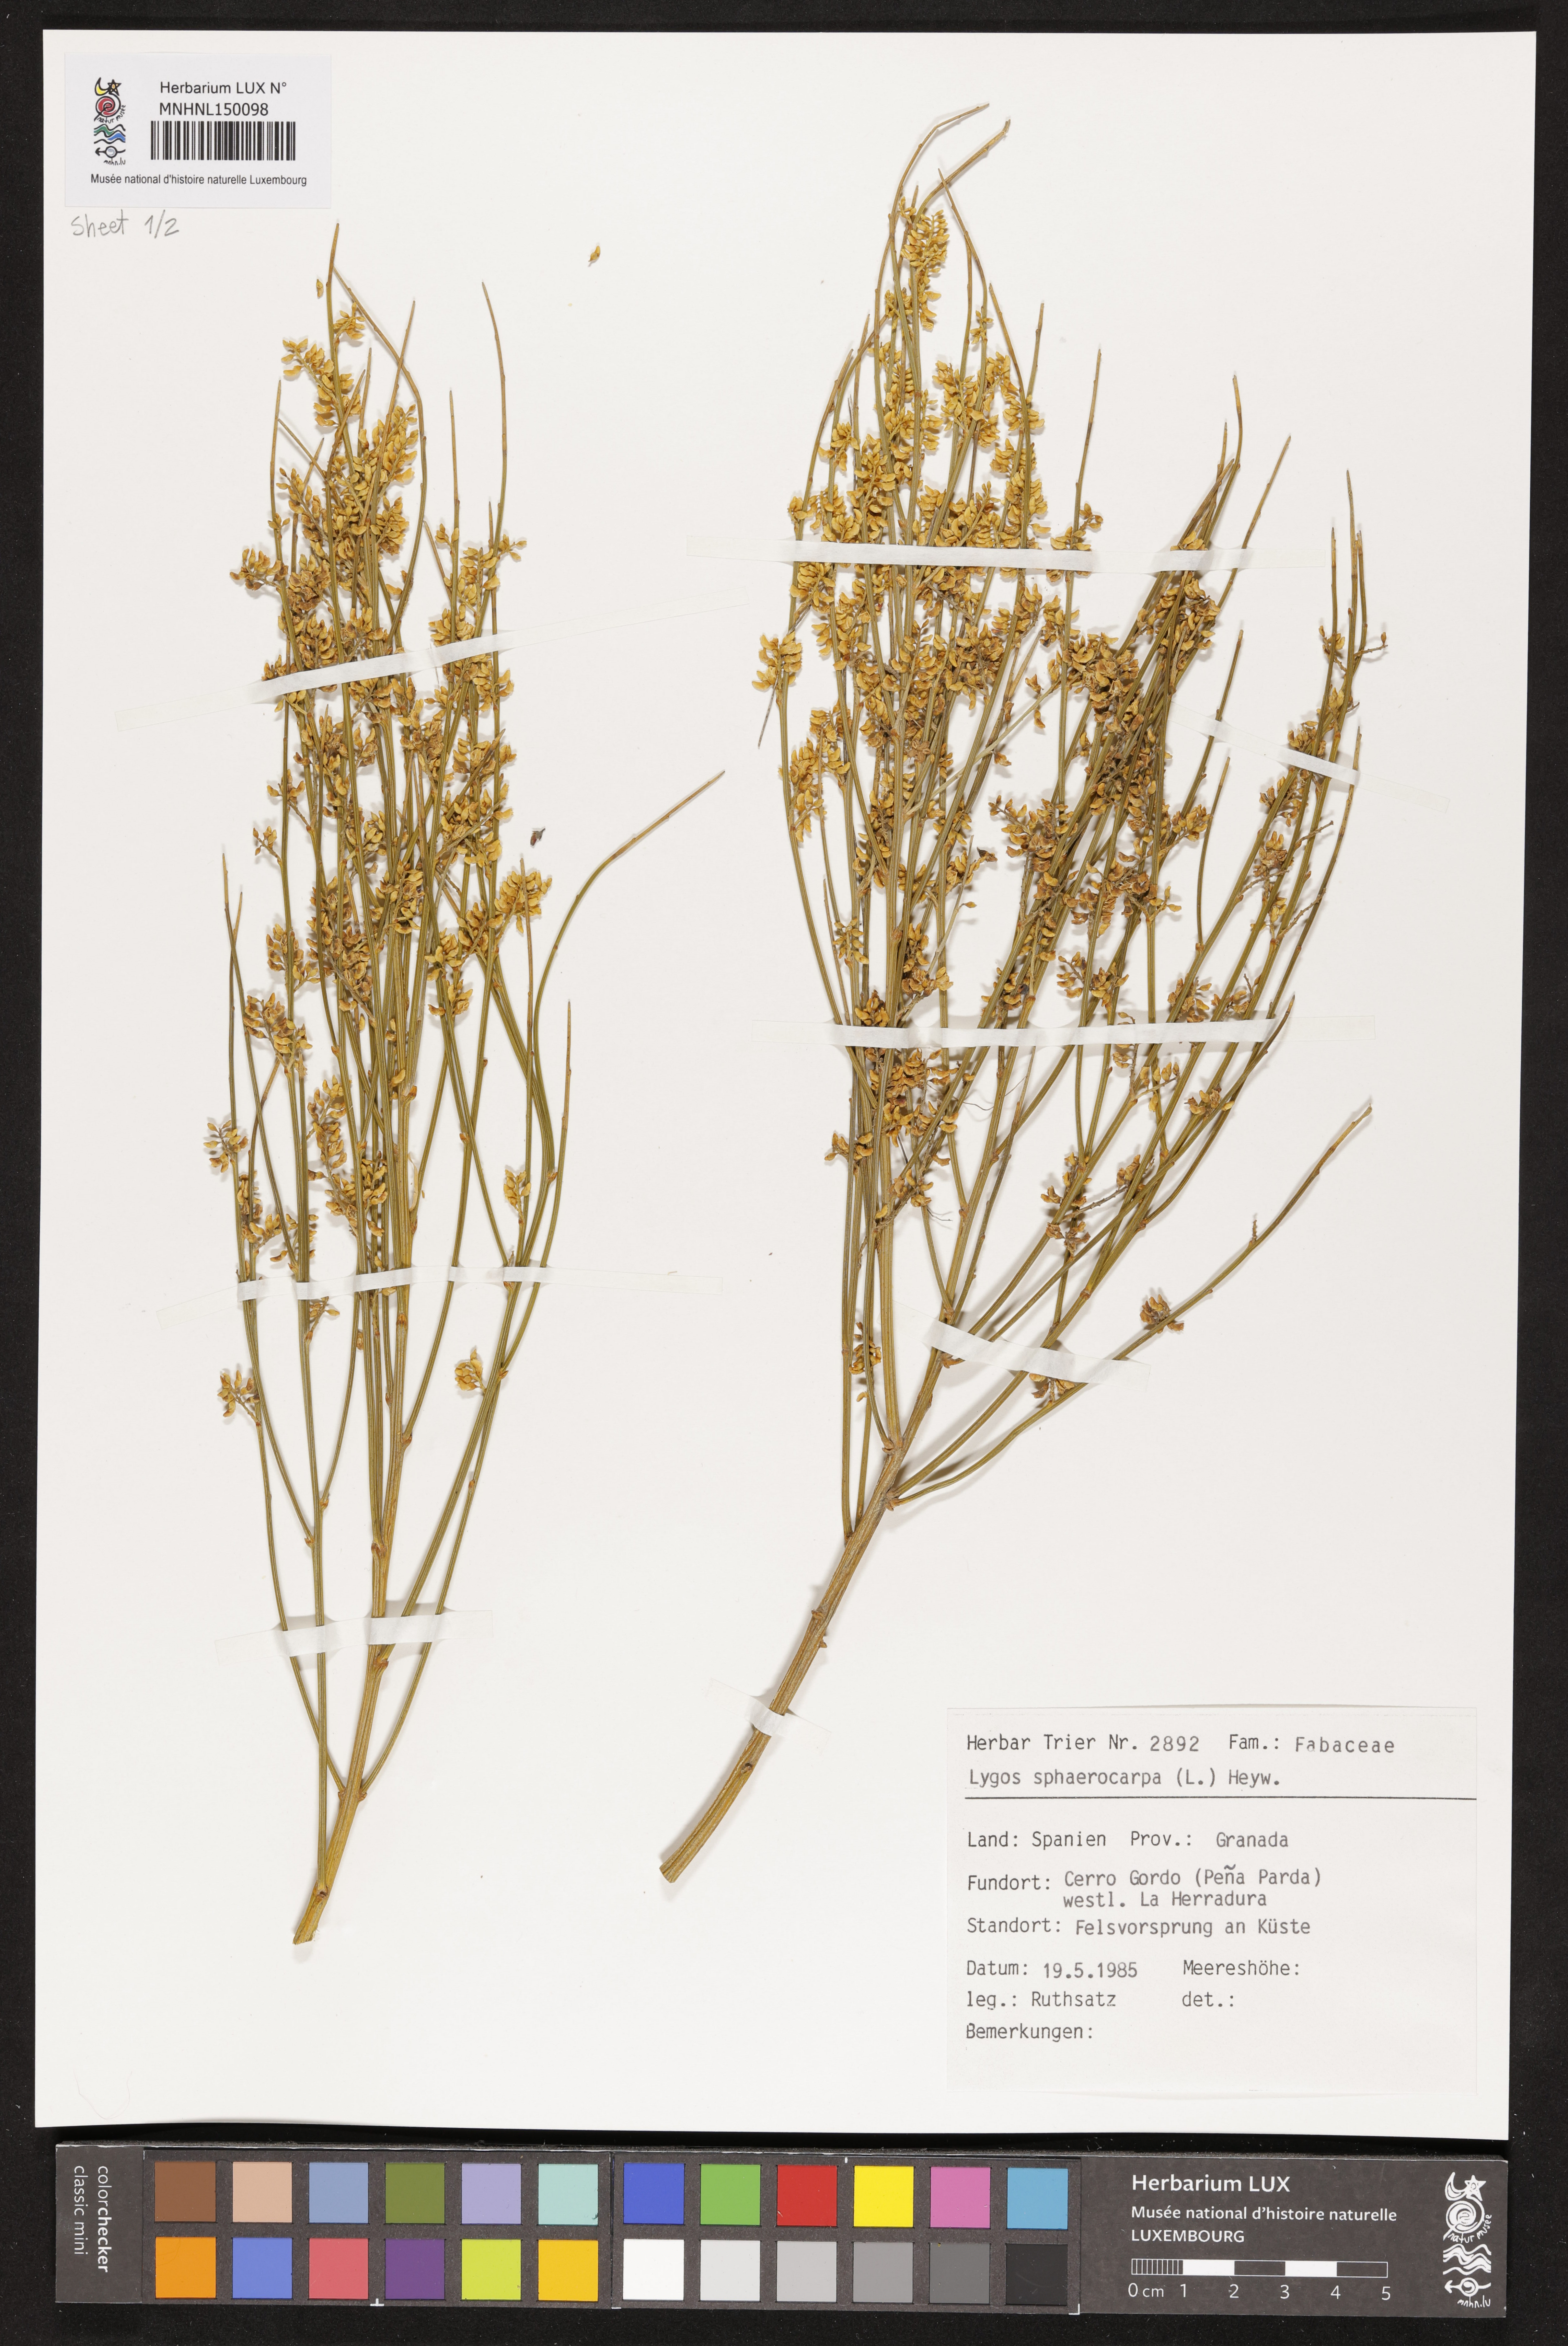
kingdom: Plantae
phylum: Tracheophyta
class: Magnoliopsida
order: Fabales
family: Fabaceae
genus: Retama
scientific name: Retama sphaerocarpa
